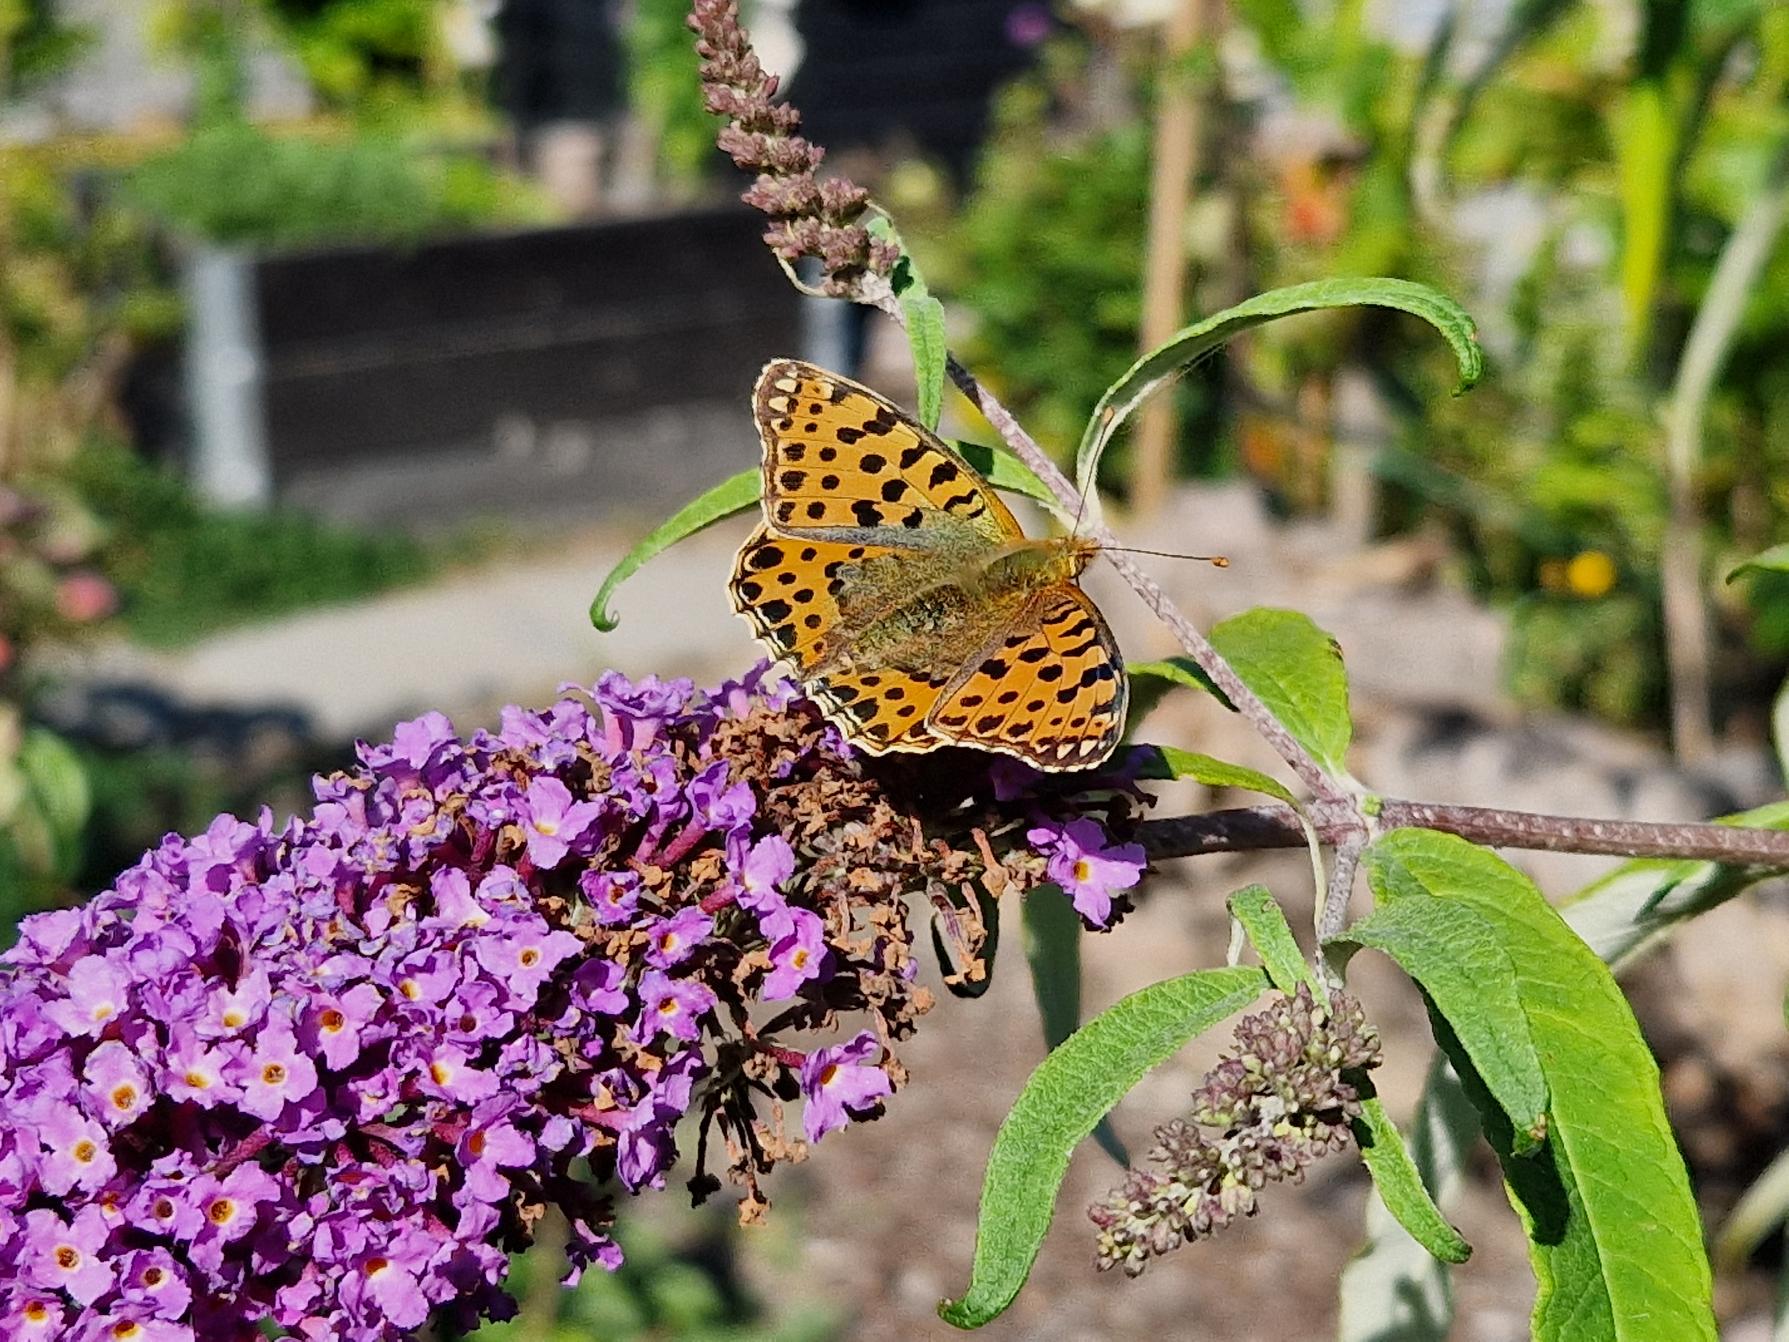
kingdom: Animalia
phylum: Arthropoda
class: Insecta
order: Lepidoptera
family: Nymphalidae
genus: Issoria
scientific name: Issoria lathonia
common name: Storplettet perlemorsommerfugl
